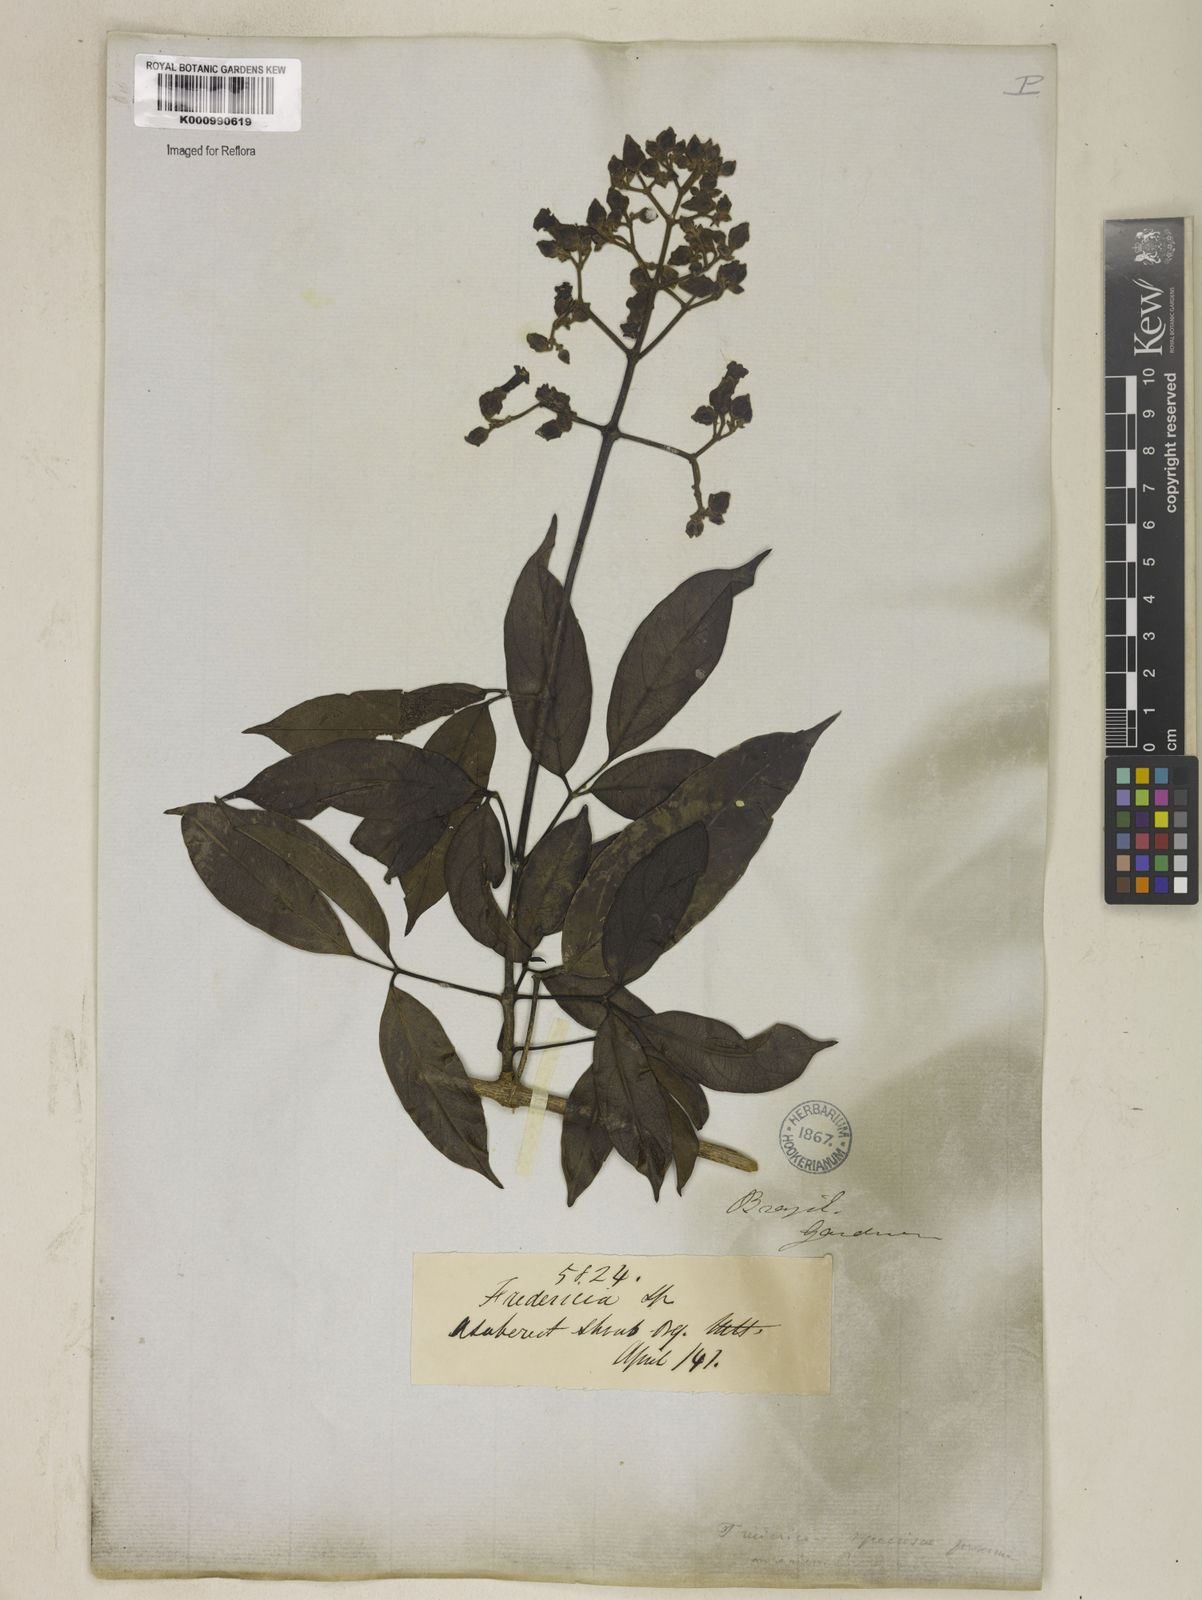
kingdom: Plantae
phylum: Tracheophyta
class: Magnoliopsida
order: Lamiales
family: Bignoniaceae
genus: Fridericia
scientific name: Fridericia speciosa
